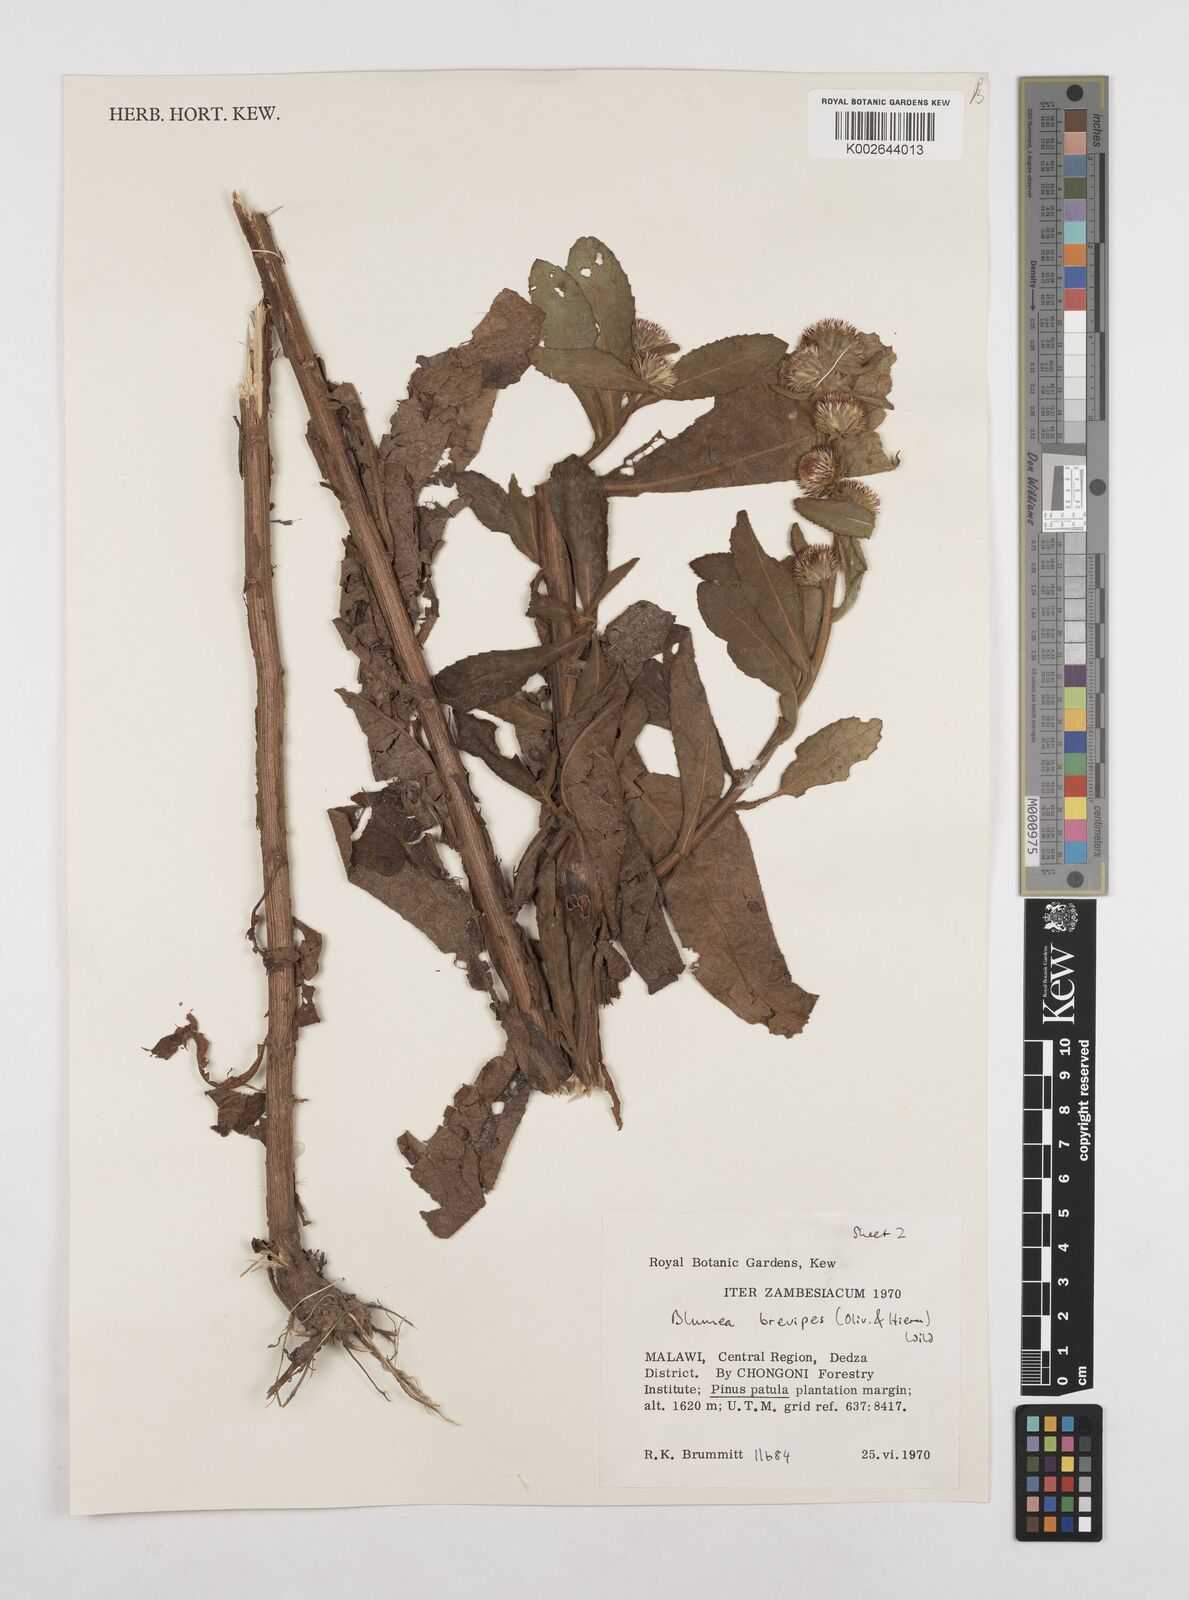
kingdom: Plantae
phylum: Tracheophyta
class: Magnoliopsida
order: Asterales
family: Asteraceae
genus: Laggera
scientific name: Laggera brevipes
